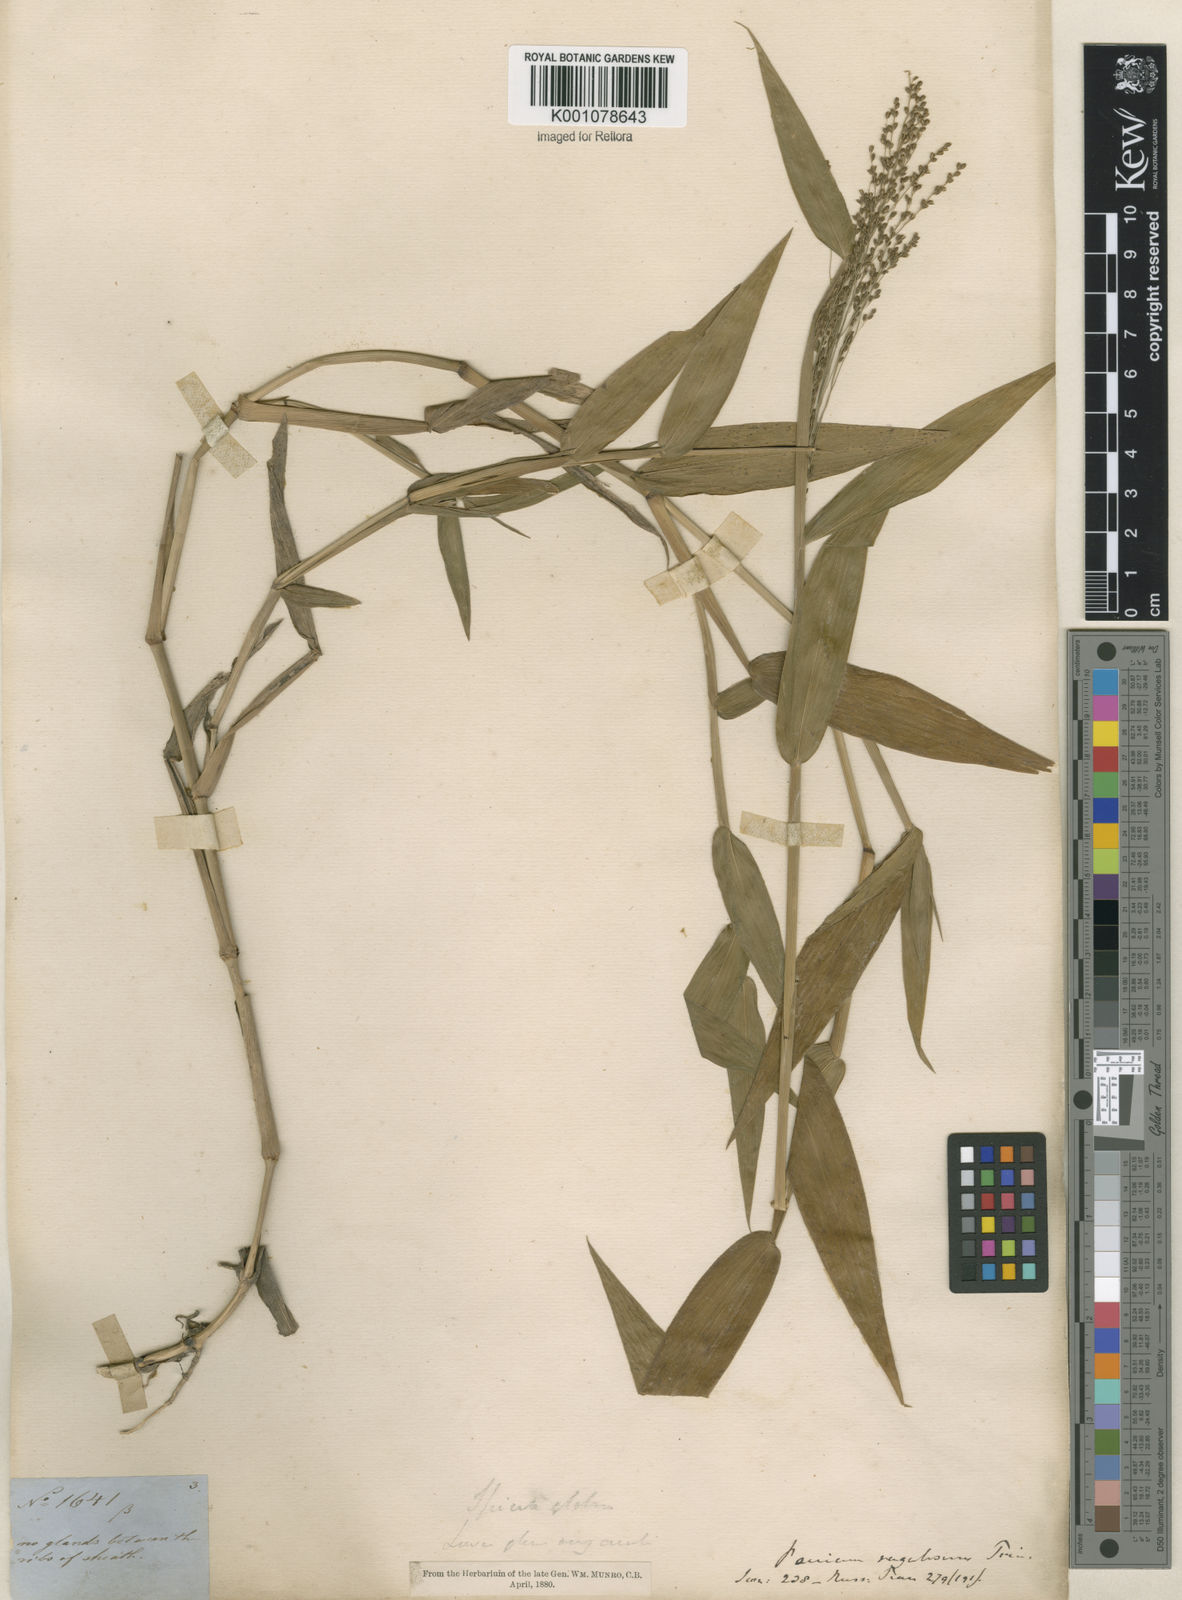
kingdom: Plantae
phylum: Tracheophyta
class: Liliopsida
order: Poales
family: Poaceae
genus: Panicum
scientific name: Panicum millegrana
